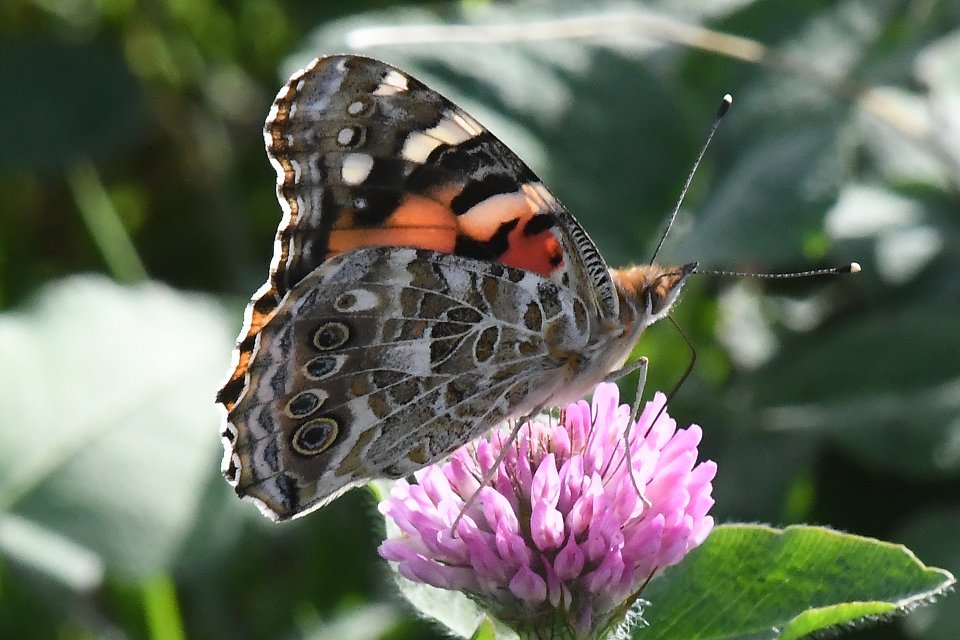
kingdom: Animalia
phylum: Arthropoda
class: Insecta
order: Lepidoptera
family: Nymphalidae
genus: Vanessa
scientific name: Vanessa cardui
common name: Painted Lady
